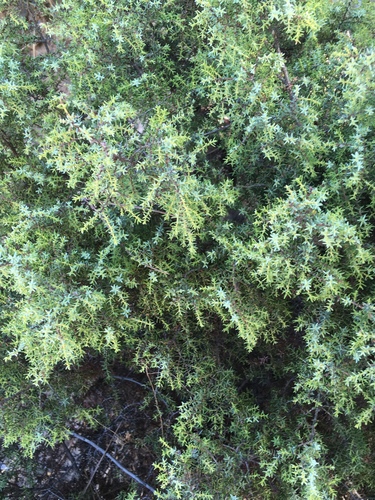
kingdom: Plantae
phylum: Tracheophyta
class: Pinopsida
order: Pinales
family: Cupressaceae
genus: Juniperus
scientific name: Juniperus oxycedrus
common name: Prickly juniper
